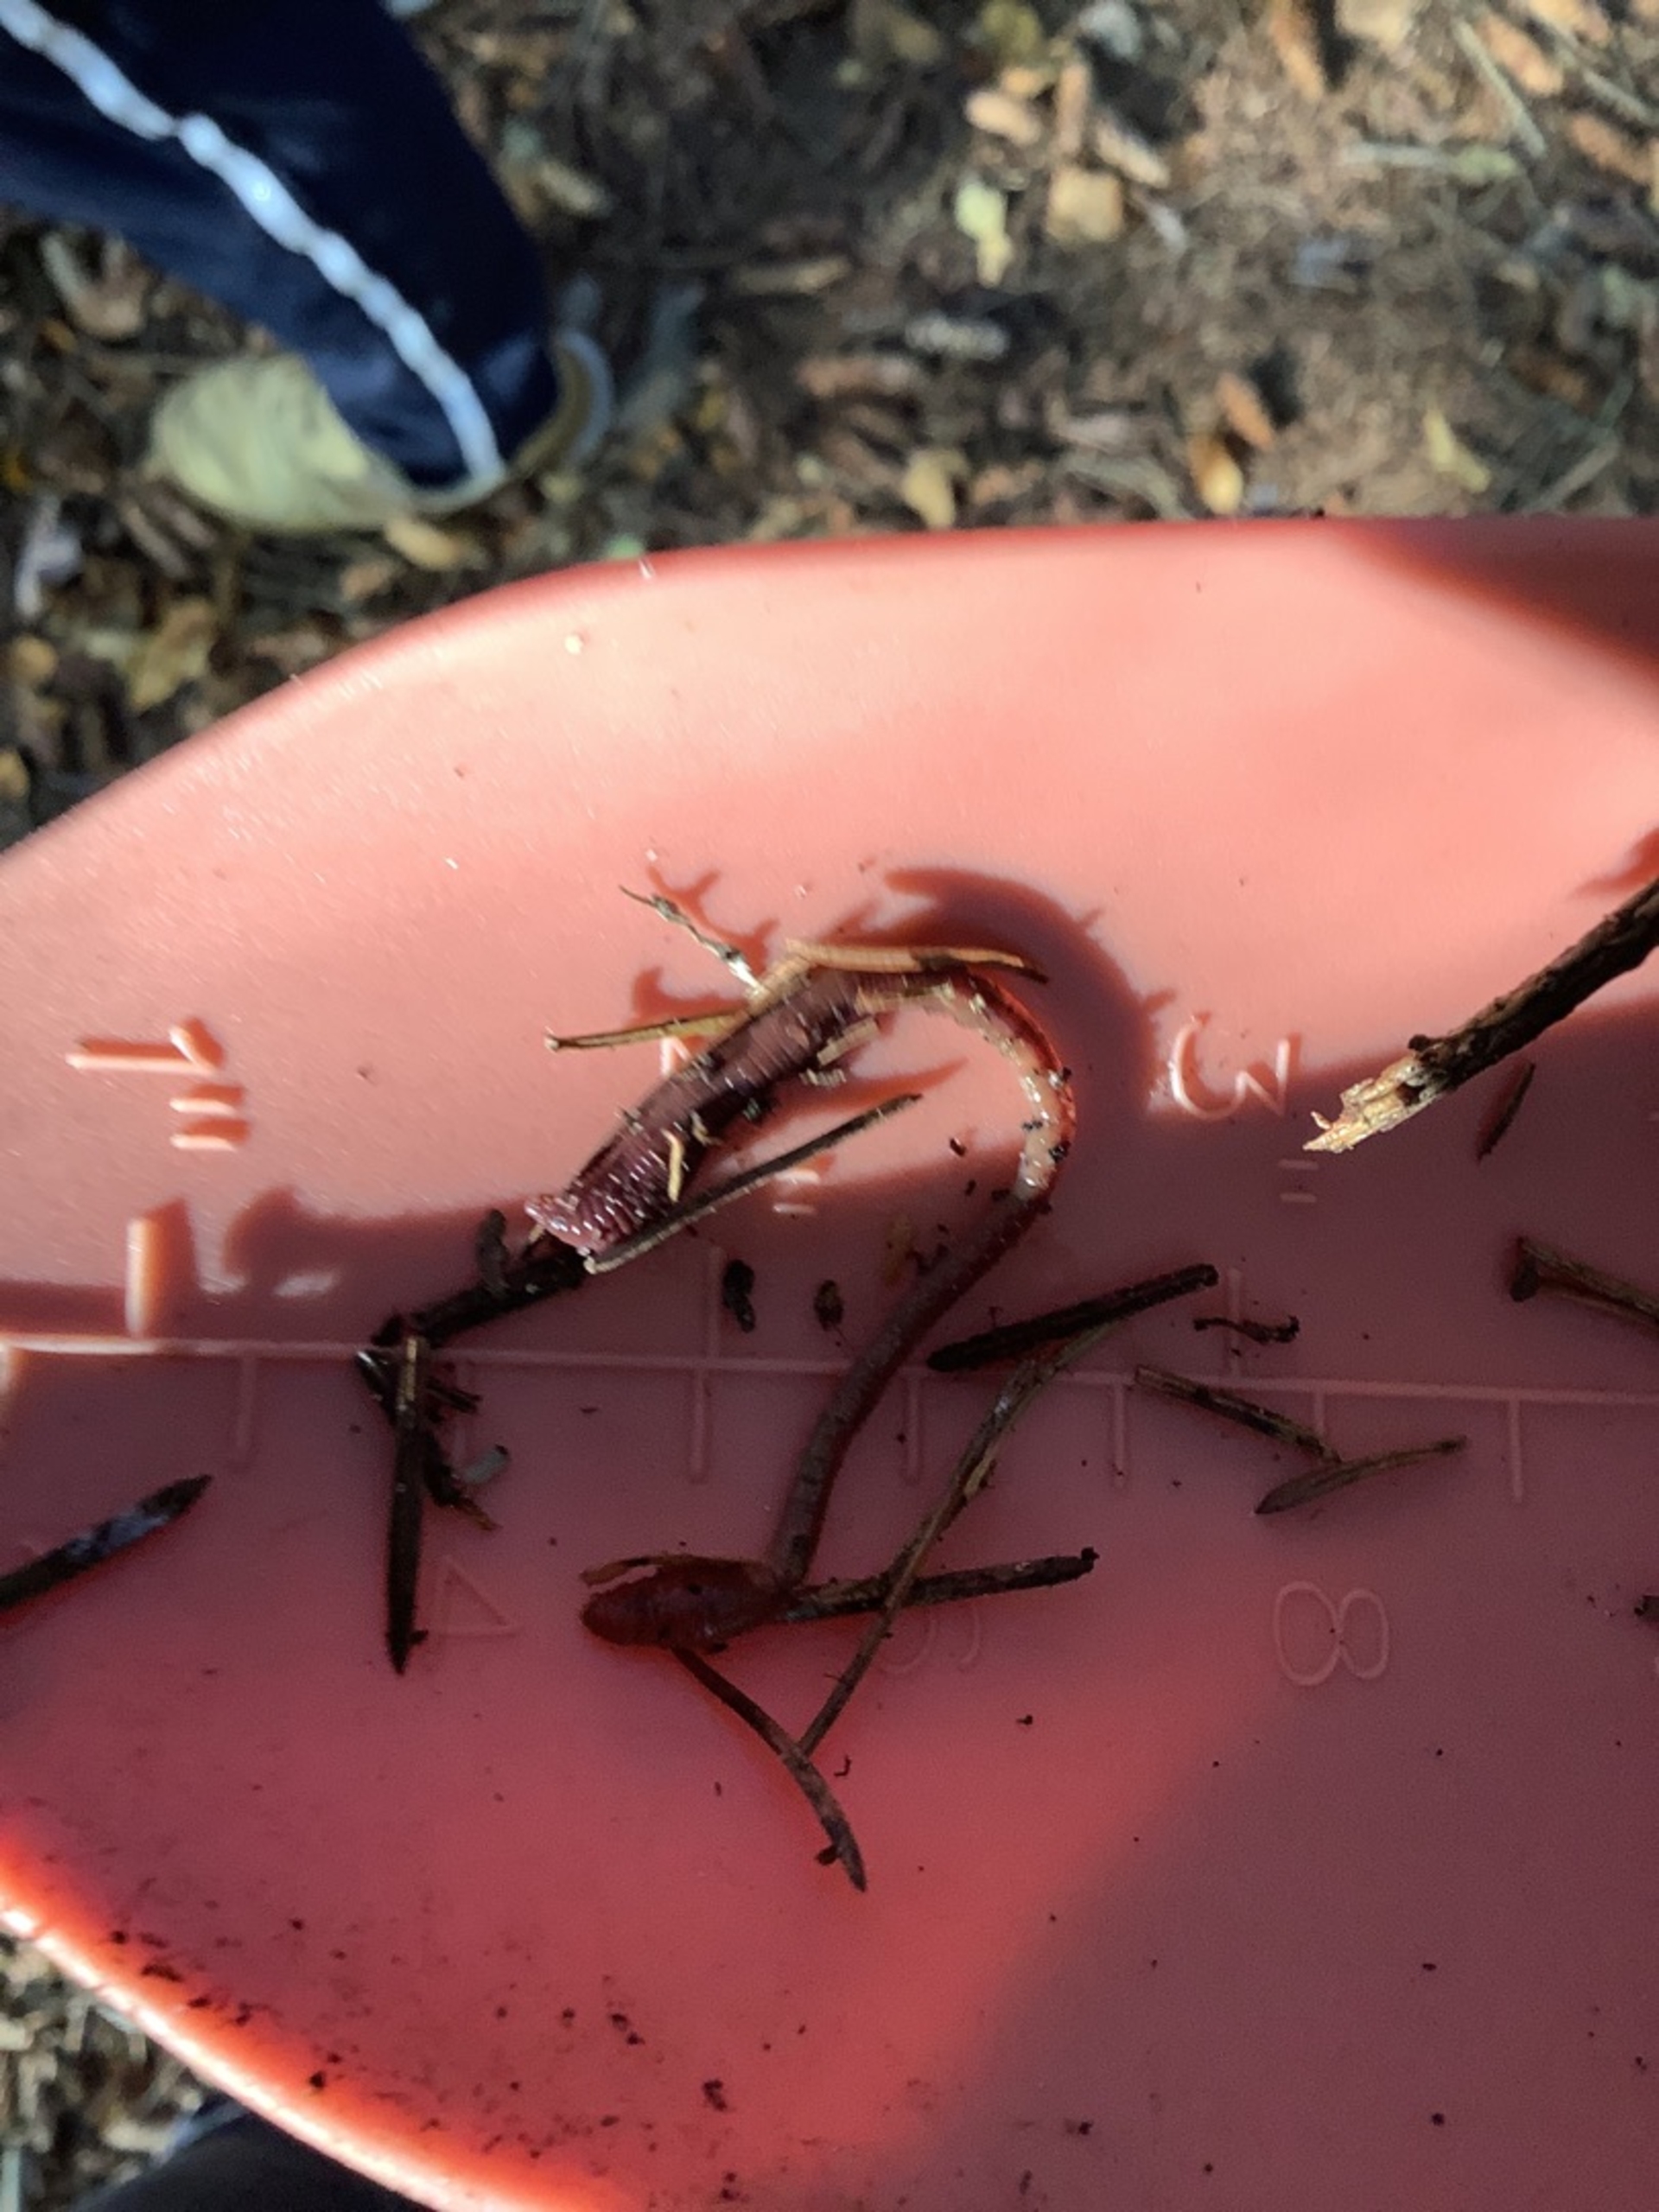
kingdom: Animalia
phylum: Annelida
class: Clitellata
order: Crassiclitellata
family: Lumbricidae
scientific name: Lumbricidae
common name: Regnorme
